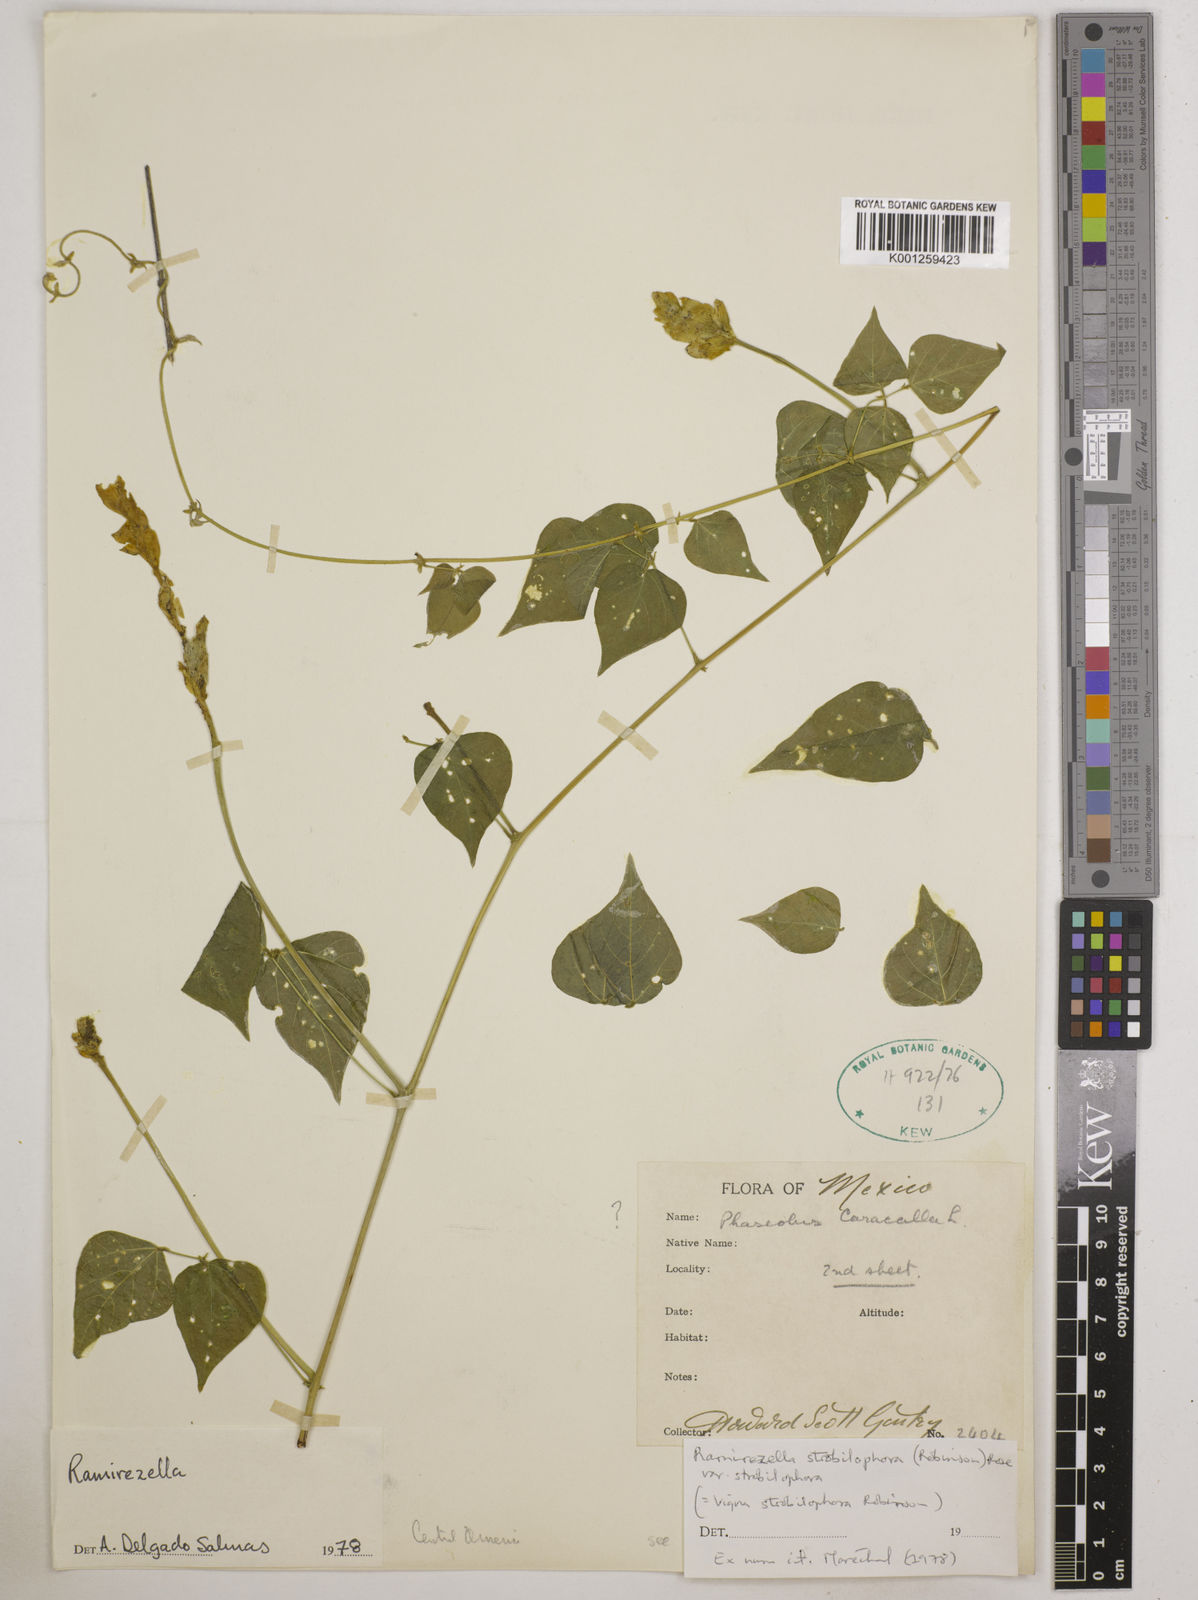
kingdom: Plantae
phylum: Tracheophyta
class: Magnoliopsida
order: Fabales
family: Fabaceae
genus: Ramirezella
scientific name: Ramirezella strobilophora
